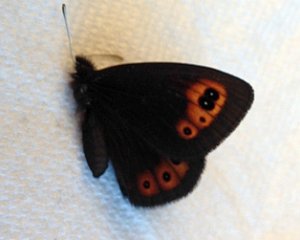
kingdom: Animalia
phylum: Arthropoda
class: Insecta
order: Lepidoptera
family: Nymphalidae
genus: Erebia
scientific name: Erebia epipsodea
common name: Common Alpine
